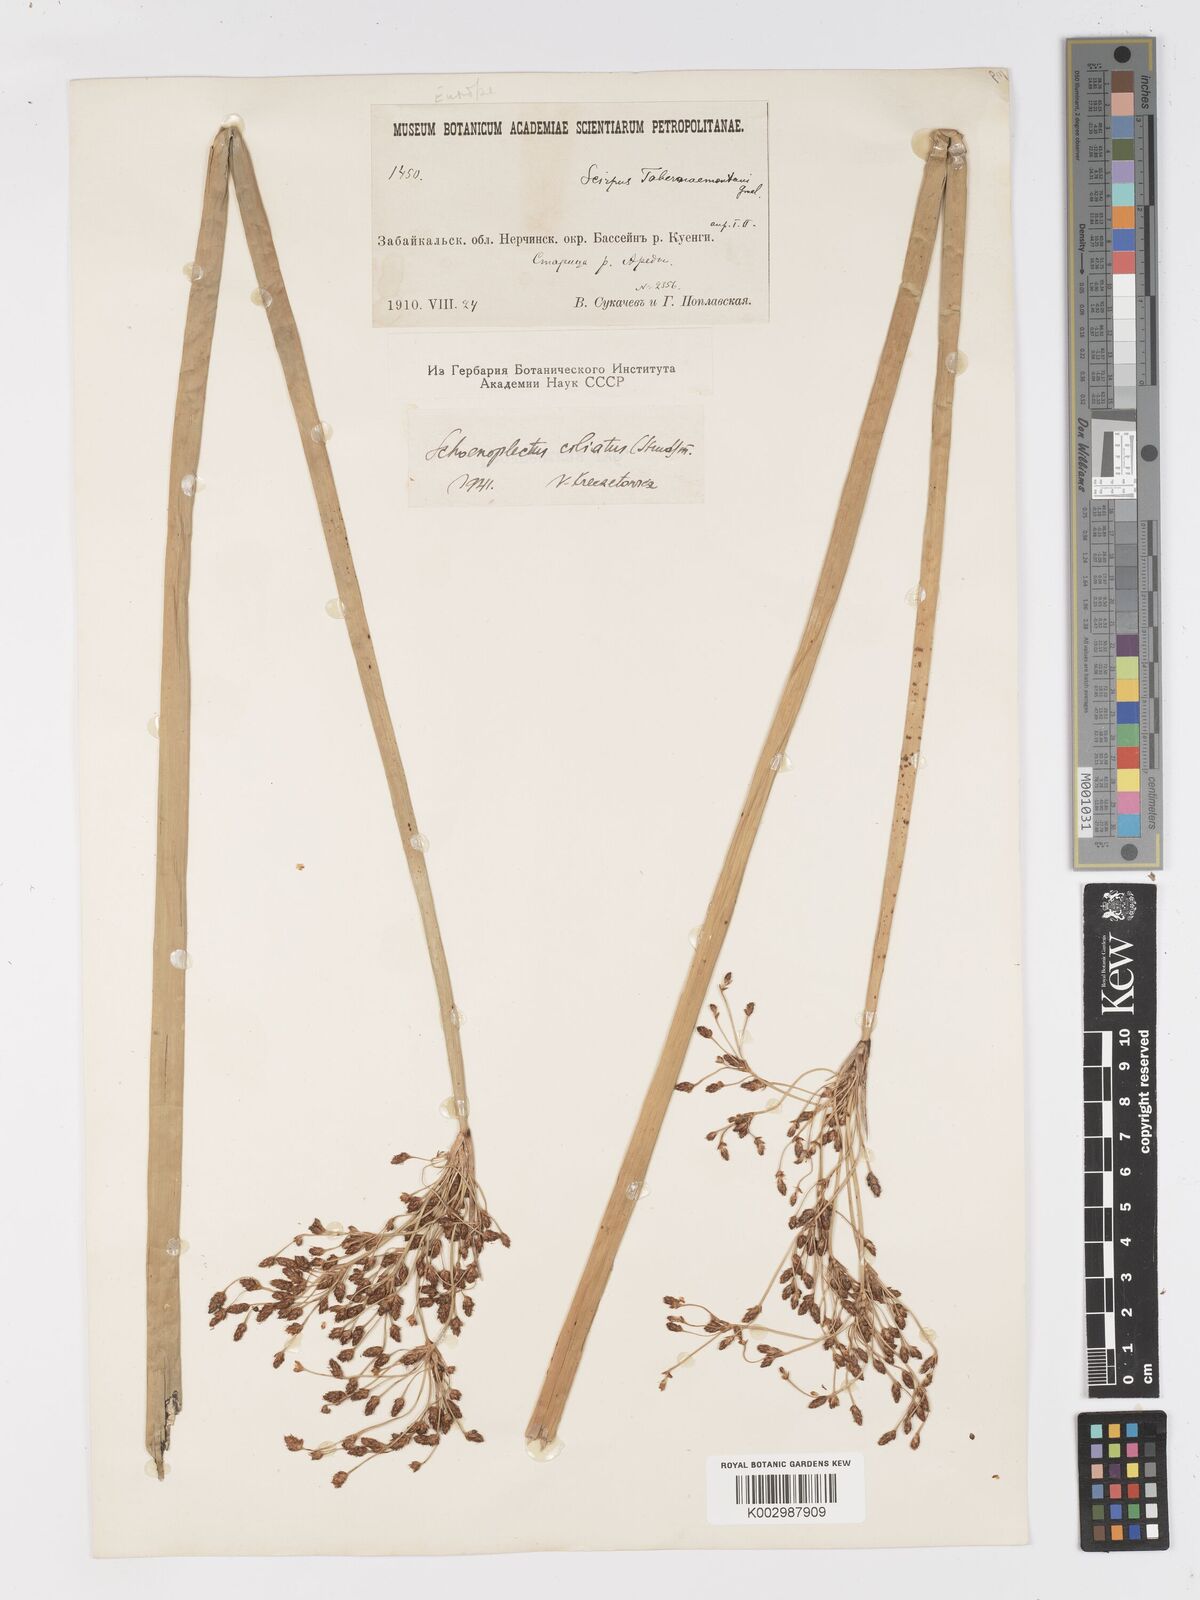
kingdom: Plantae
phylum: Tracheophyta
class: Liliopsida
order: Poales
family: Cyperaceae
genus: Schoenoplectus
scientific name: Schoenoplectus tabernaemontani
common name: Grey club-rush
